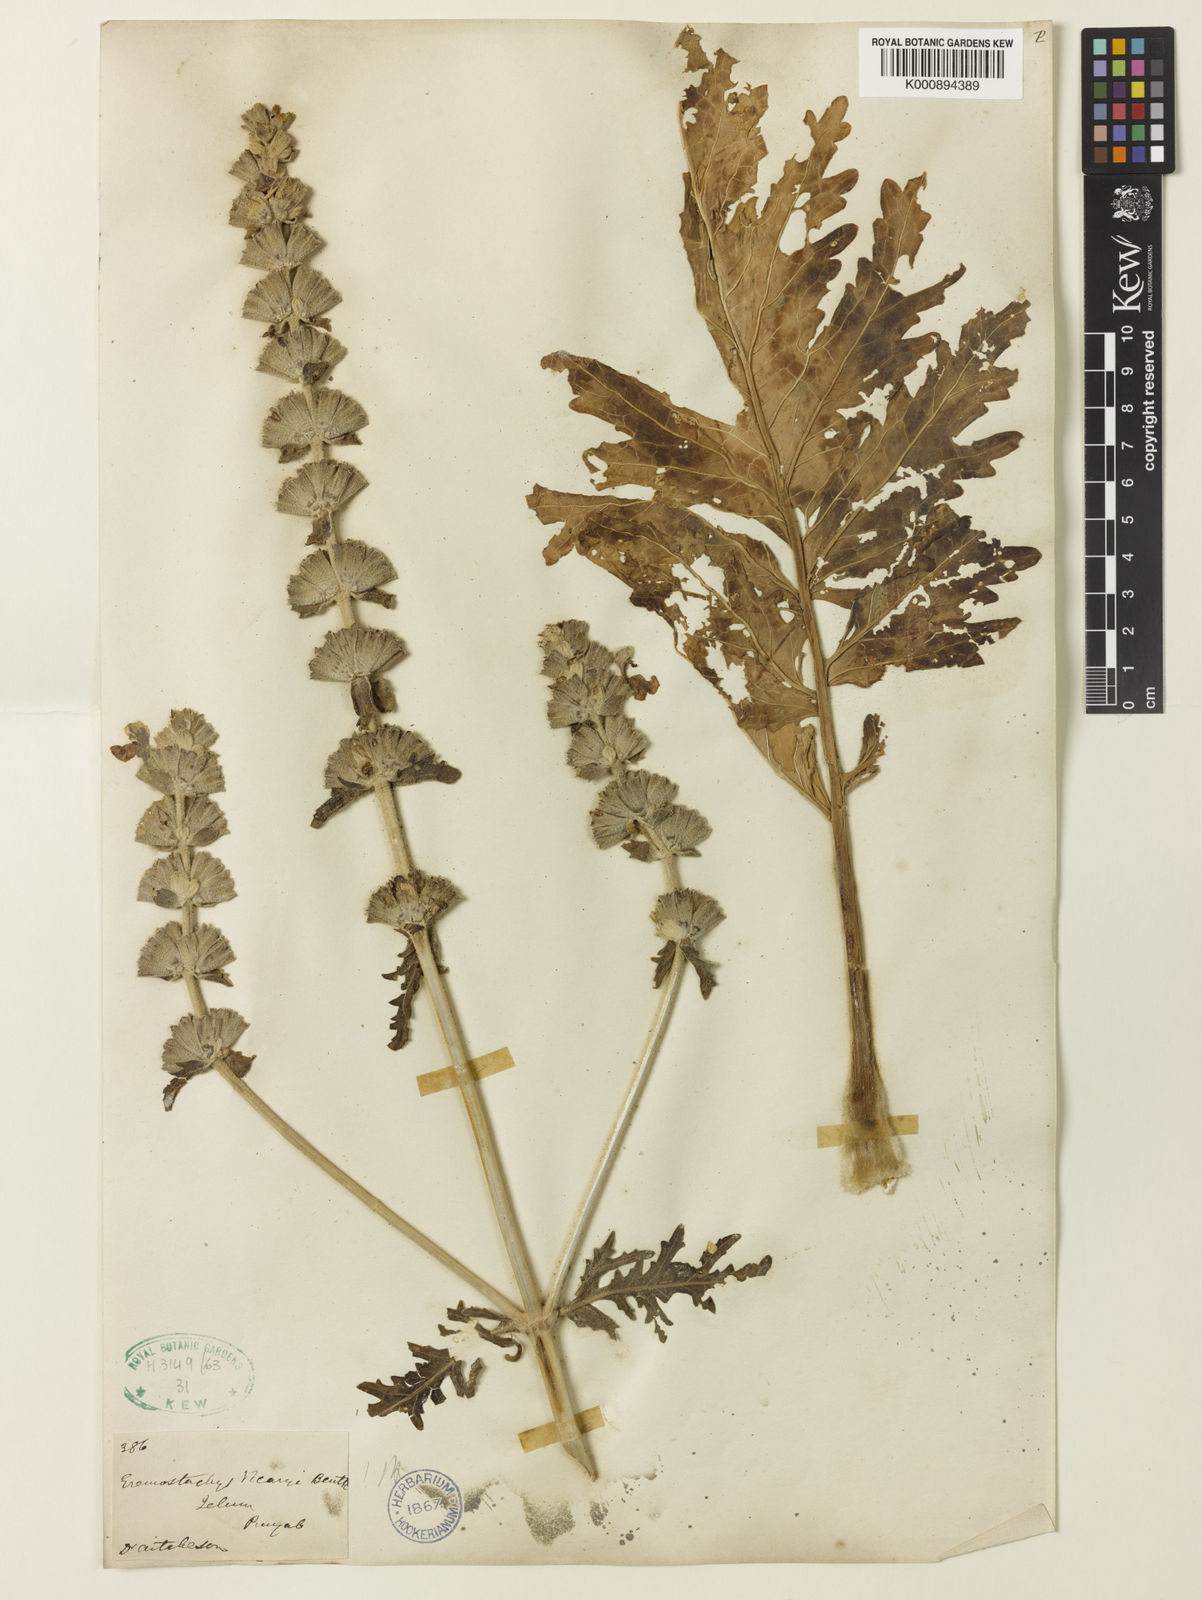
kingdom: Plantae
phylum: Tracheophyta
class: Magnoliopsida
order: Lamiales
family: Lamiaceae
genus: Phlomoides
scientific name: Phlomoides
